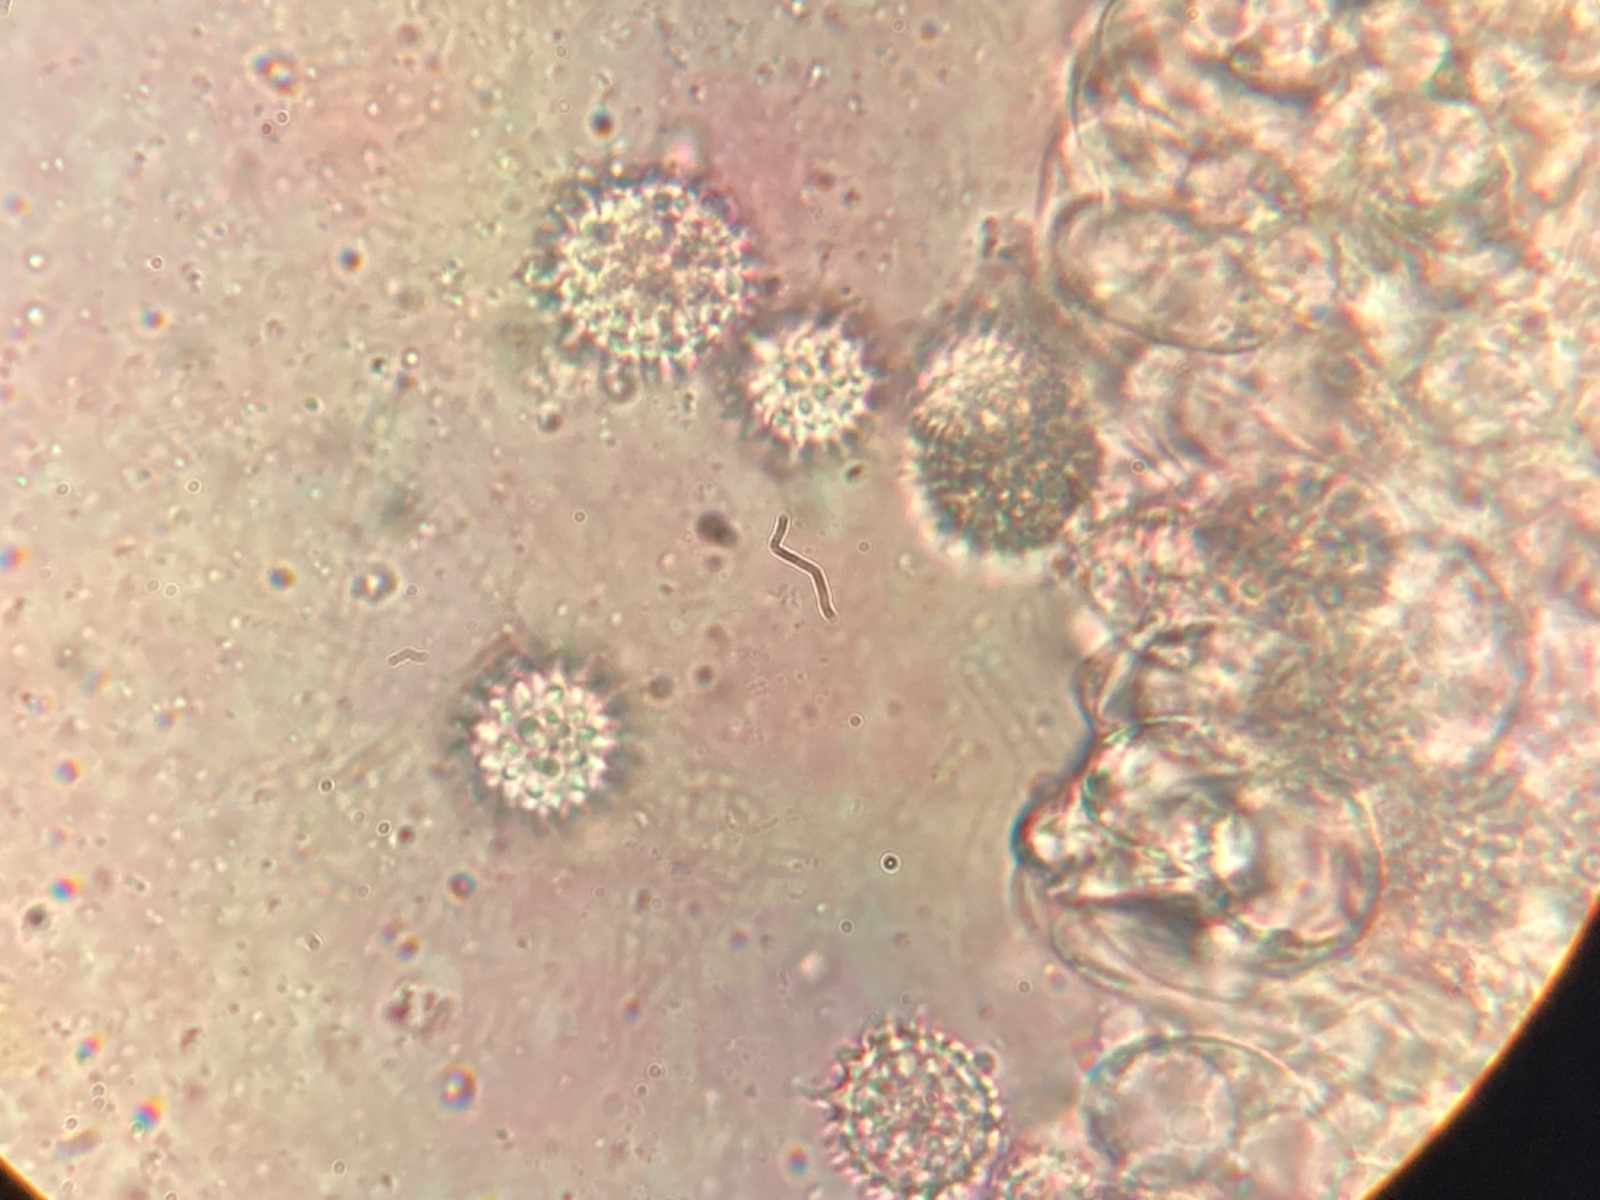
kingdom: Fungi
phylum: Basidiomycota
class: Agaricomycetes
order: Agaricales
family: Hydnangiaceae
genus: Laccaria
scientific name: Laccaria tortilis
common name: krybende ametysthat
